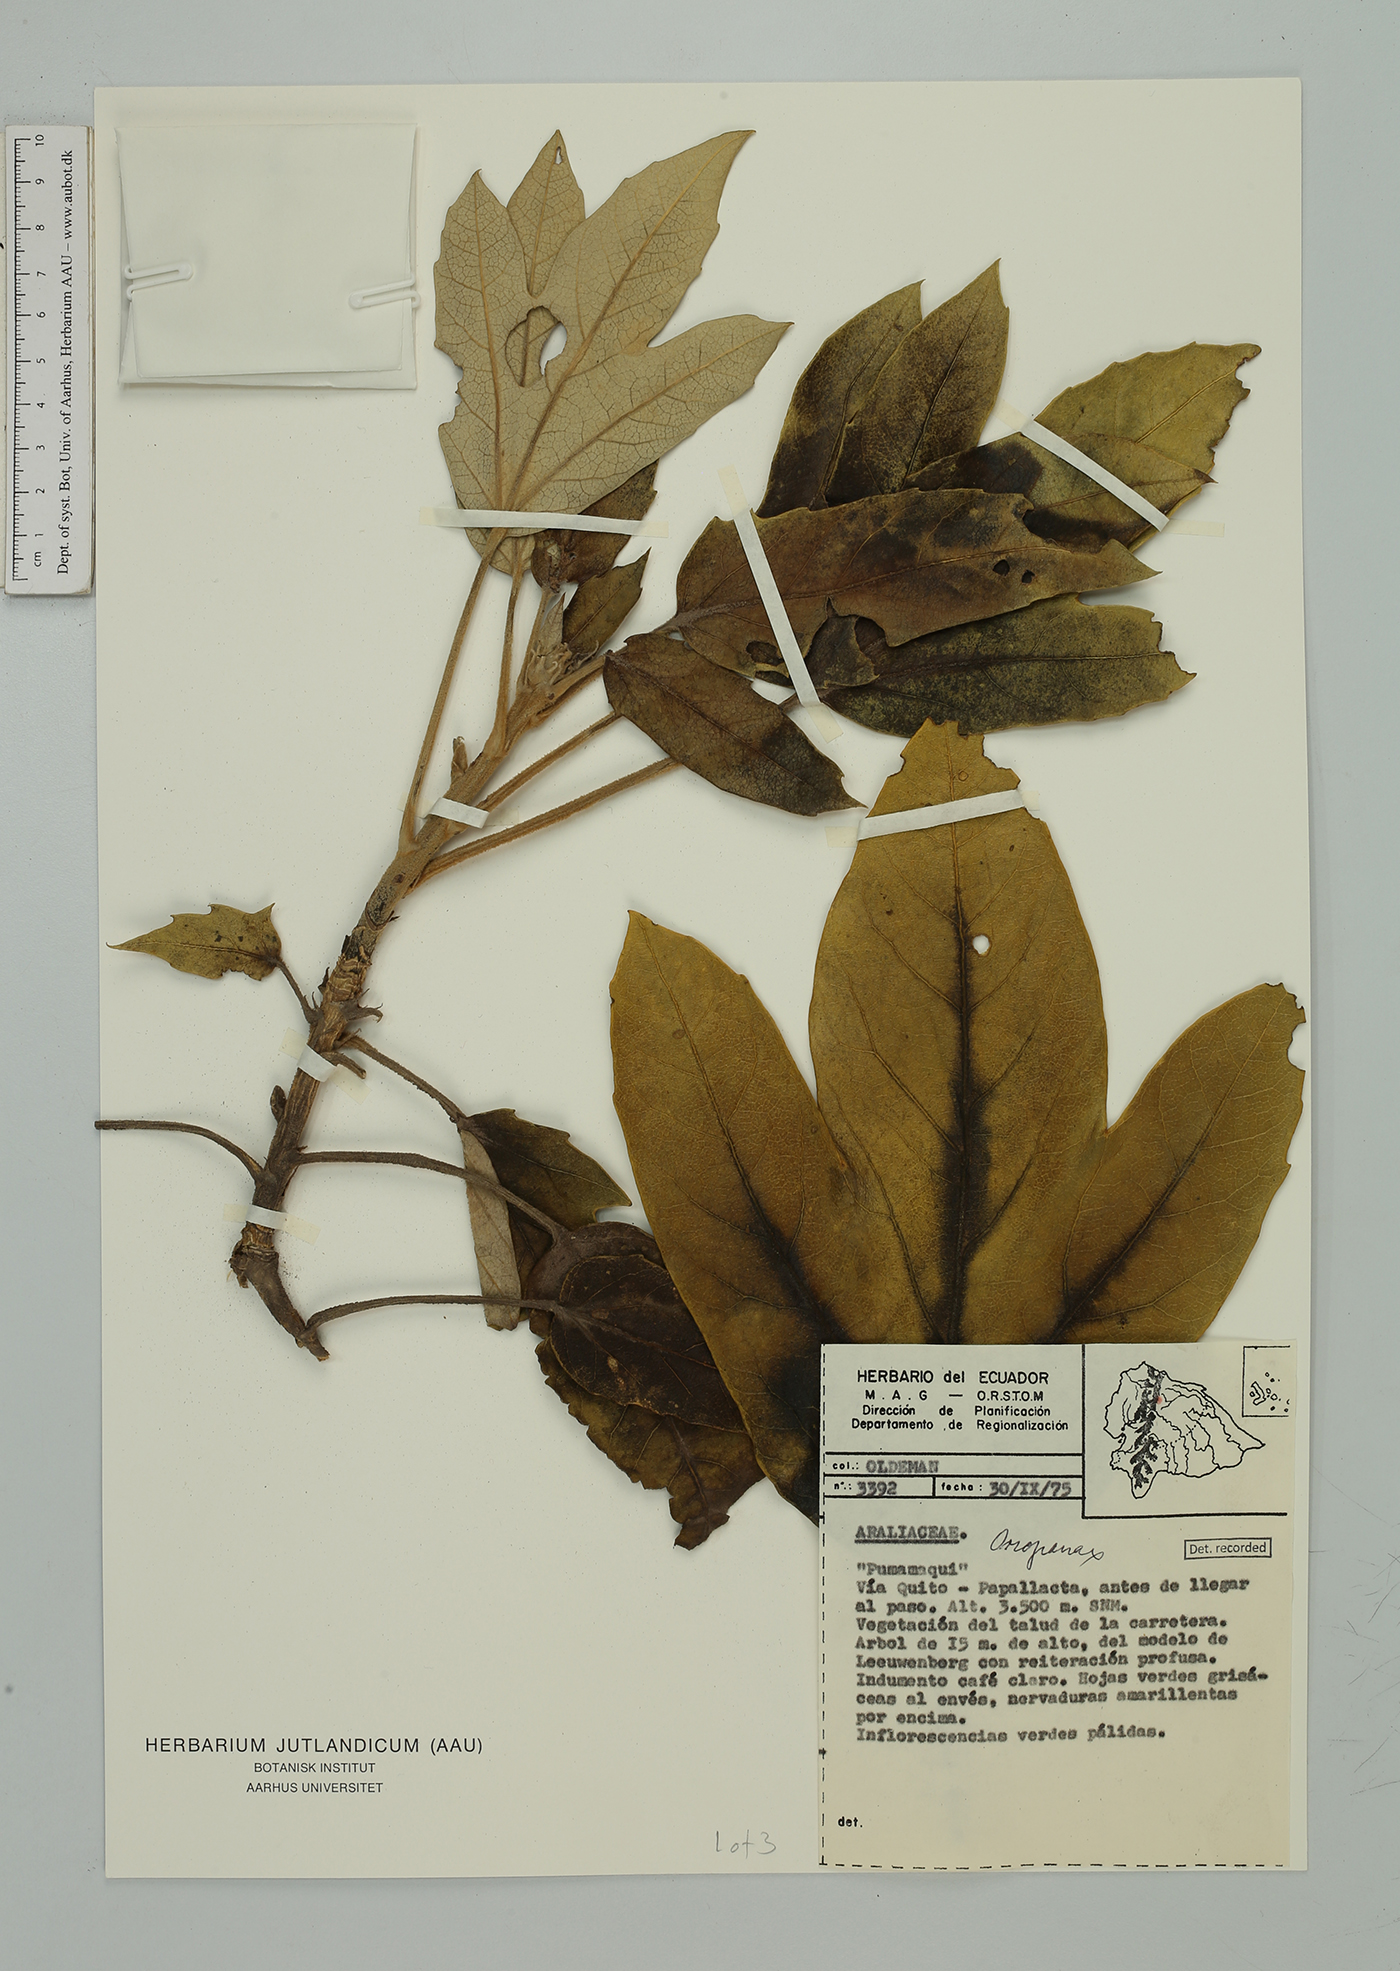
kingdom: Plantae
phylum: Tracheophyta
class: Magnoliopsida
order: Apiales
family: Araliaceae
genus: Oreopanax
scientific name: Oreopanax
